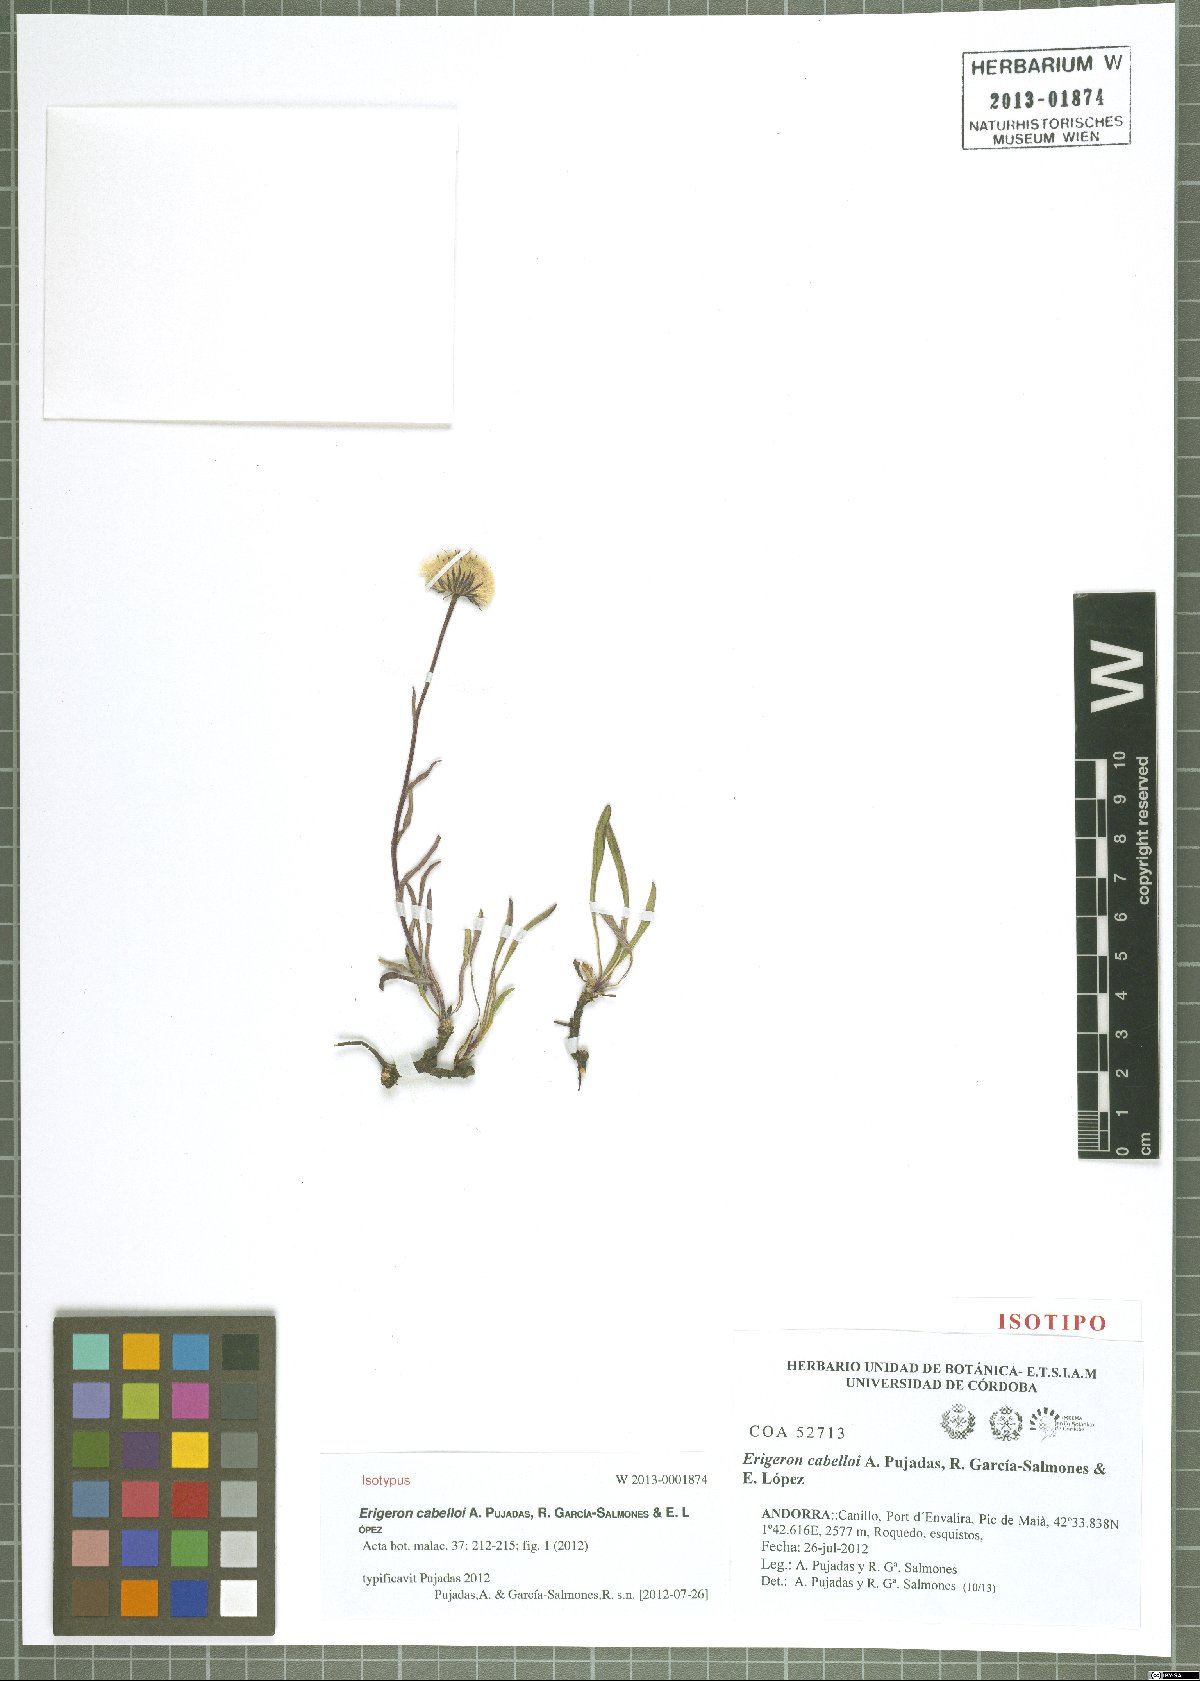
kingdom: Plantae
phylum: Tracheophyta
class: Magnoliopsida
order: Asterales
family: Asteraceae
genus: Erigeron
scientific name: Erigeron cabelloi
